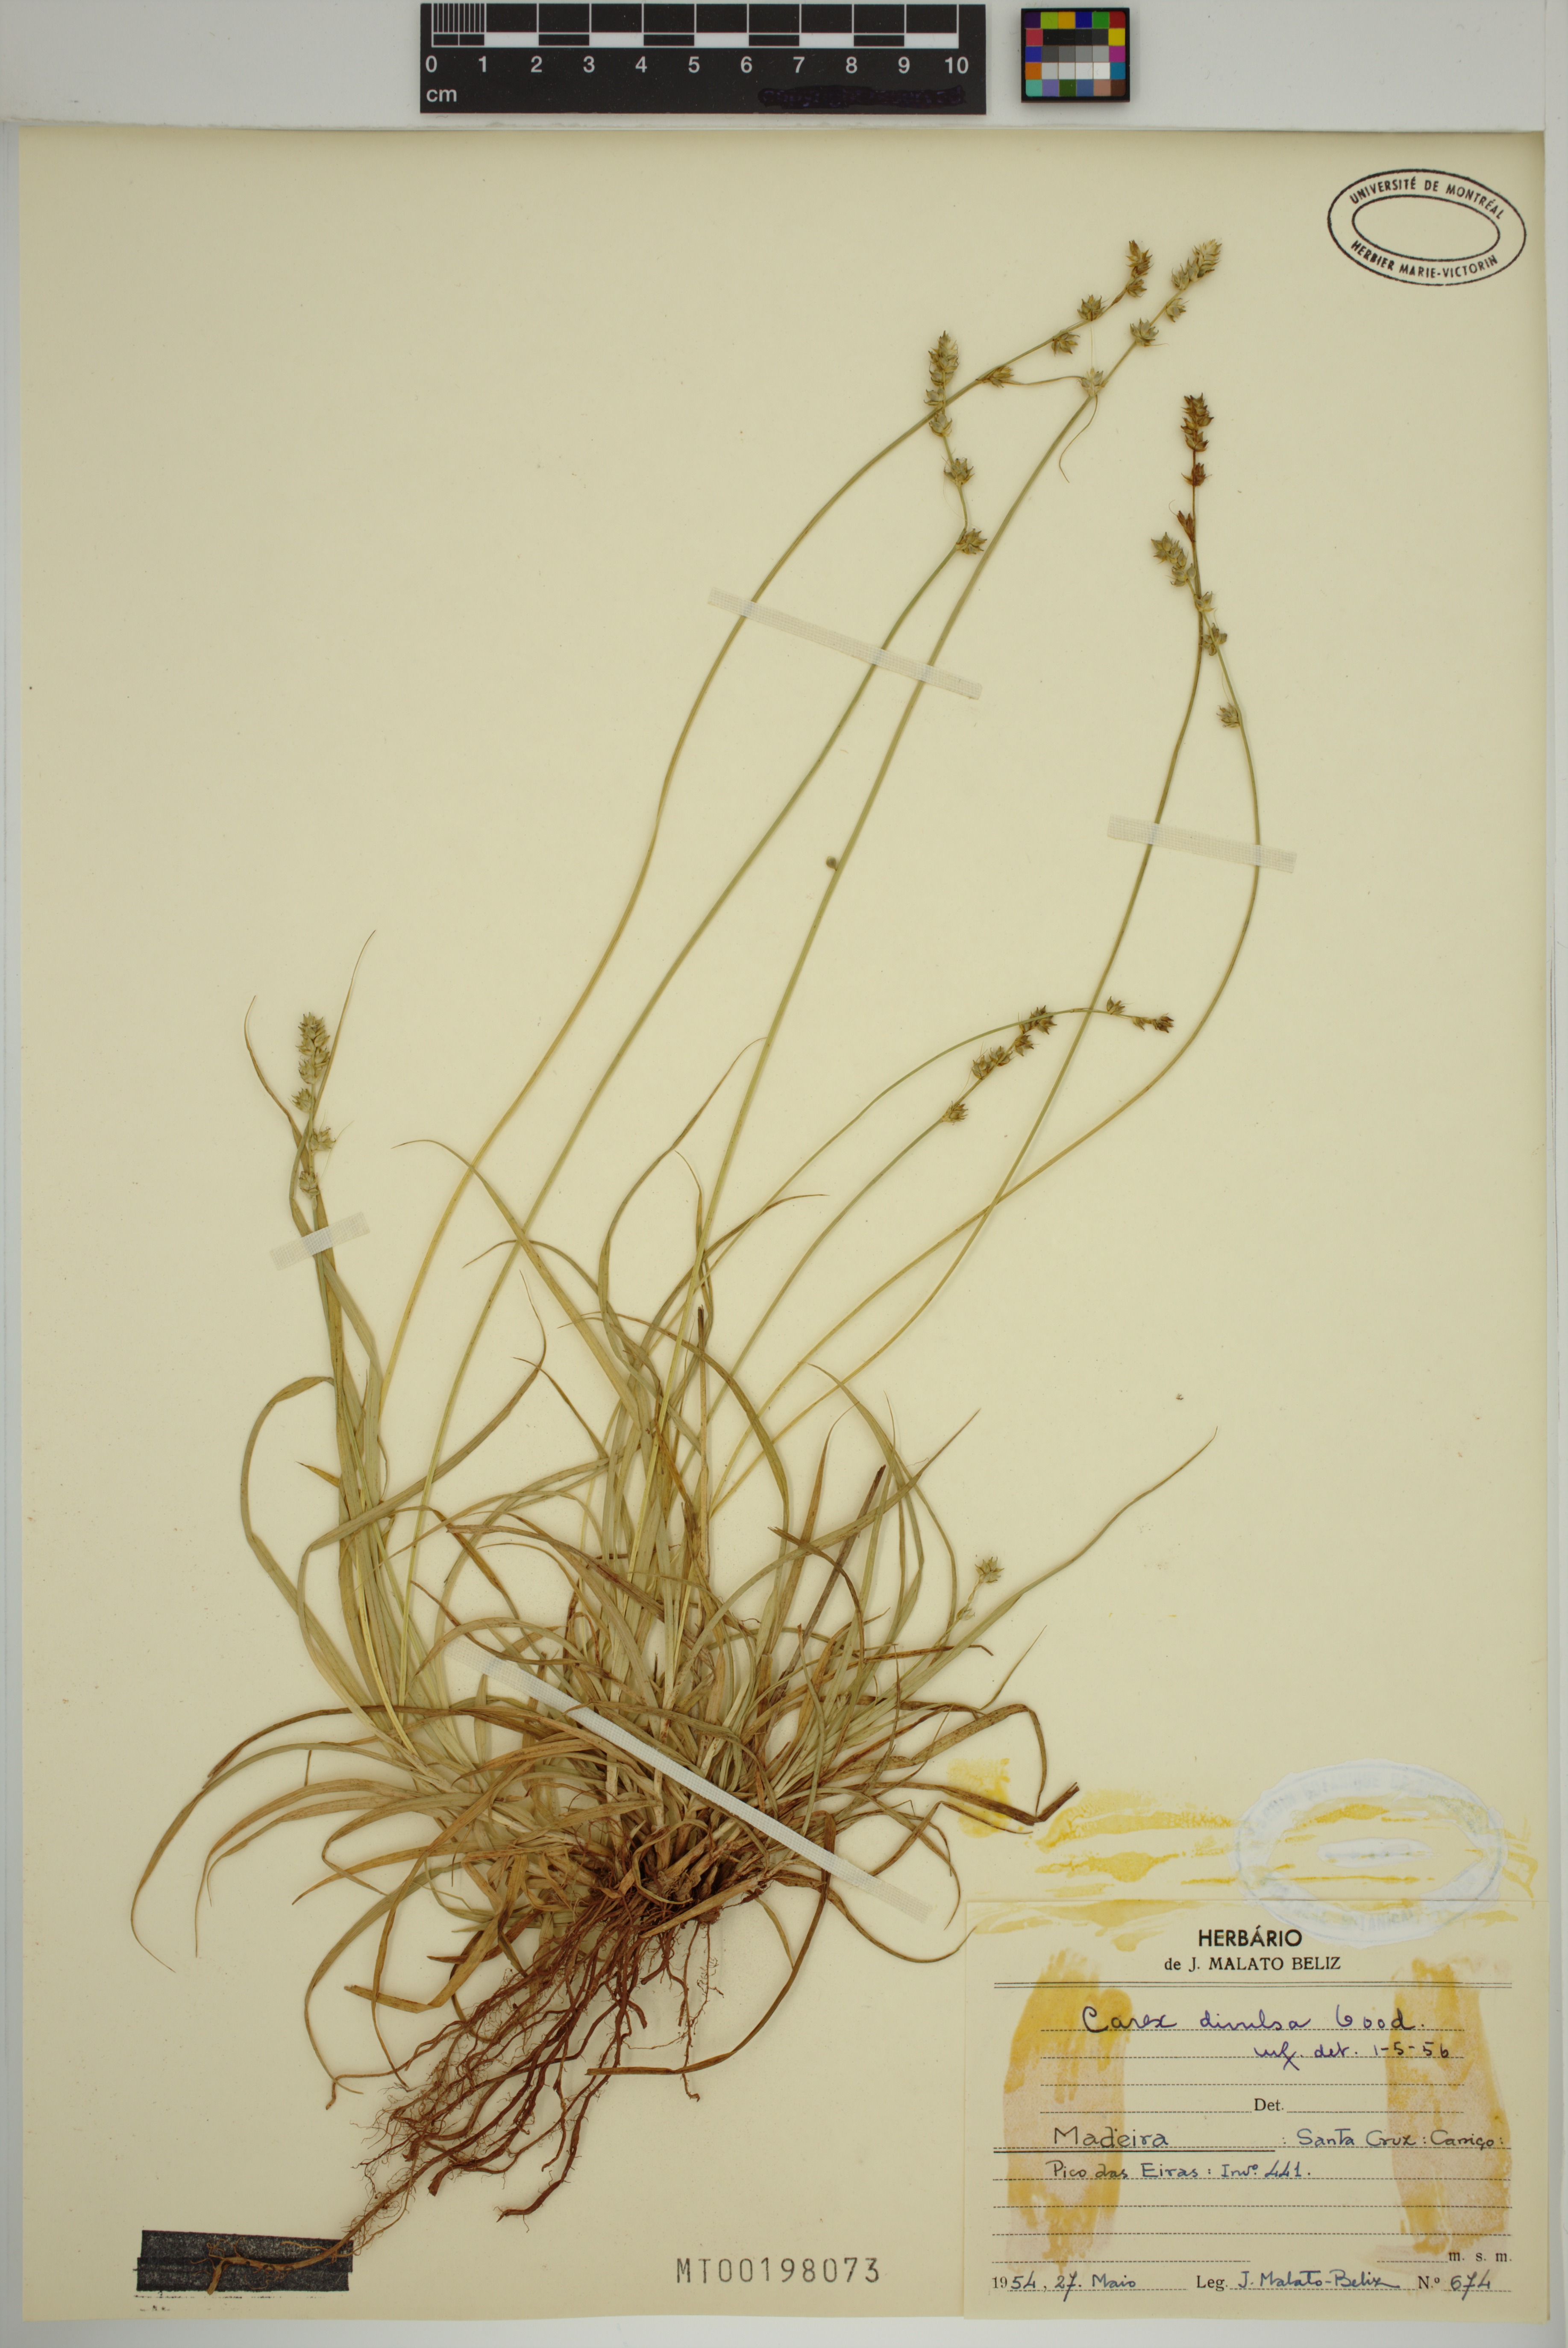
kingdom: Plantae
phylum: Tracheophyta
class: Liliopsida
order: Poales
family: Cyperaceae
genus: Carex
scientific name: Carex divulsa
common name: Grassland sedge
